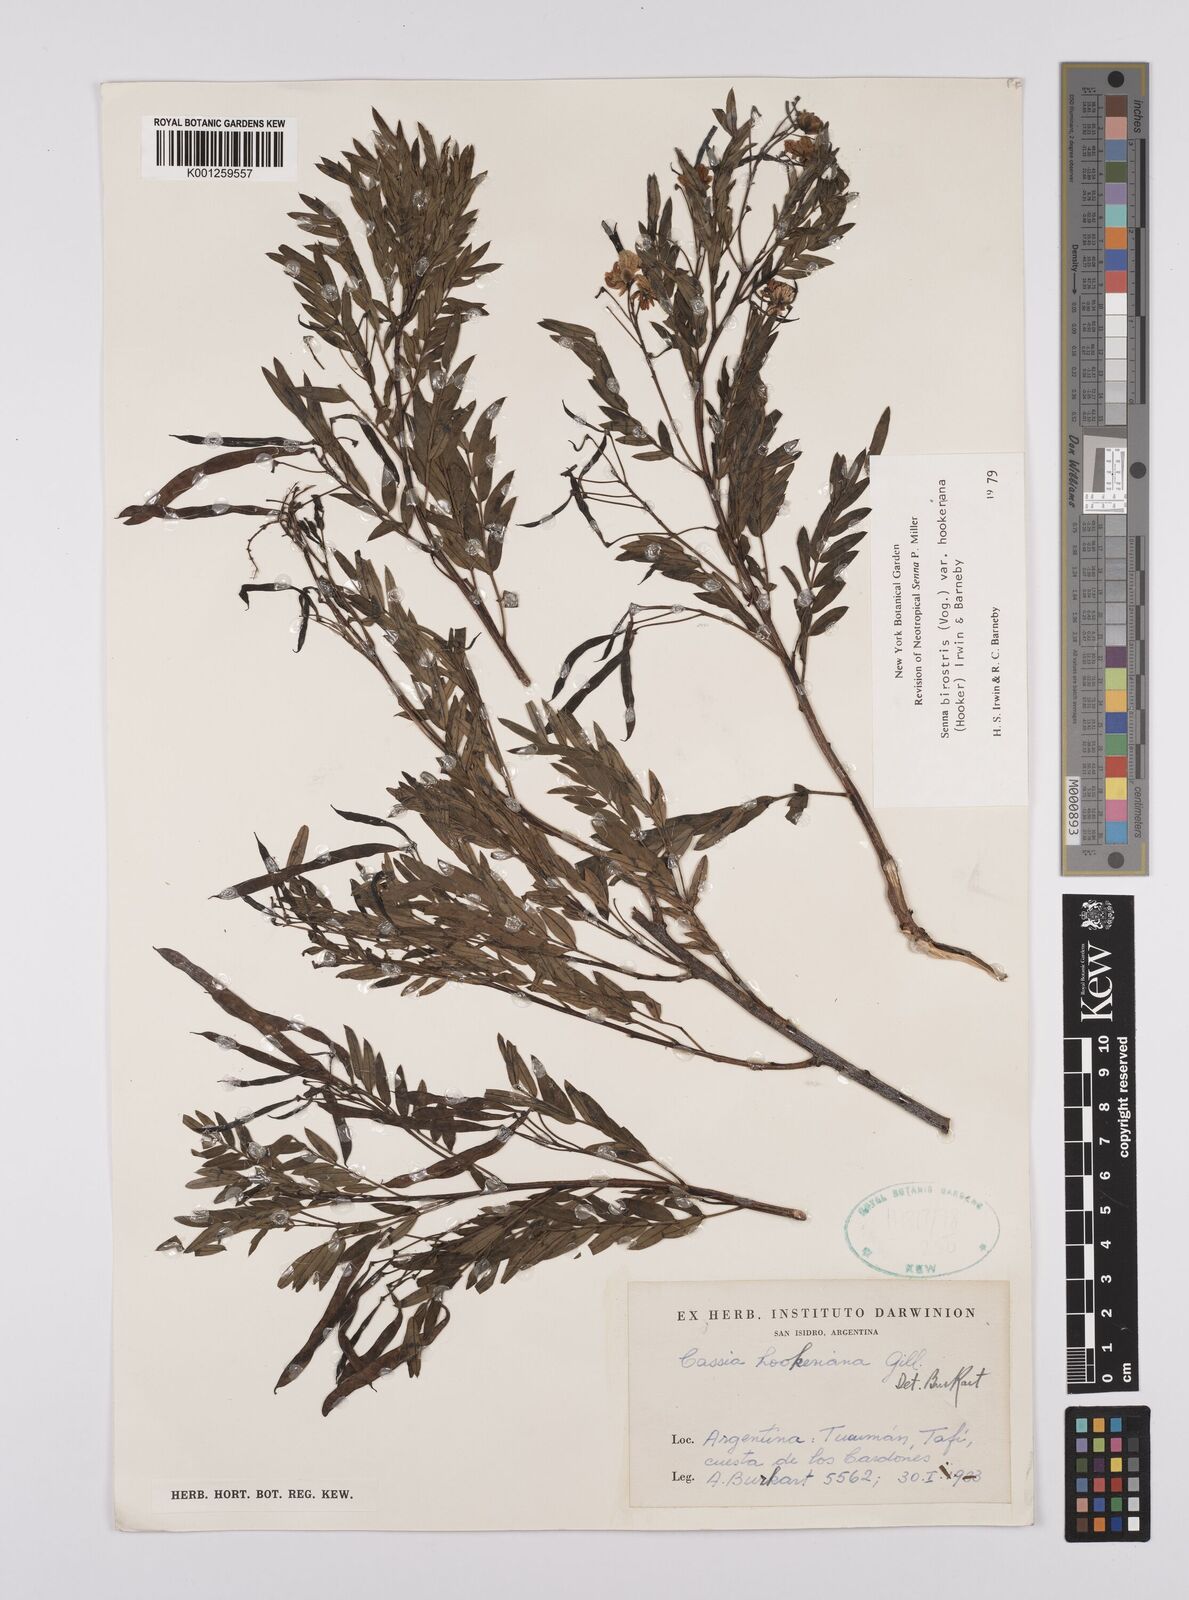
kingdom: Plantae
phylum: Tracheophyta
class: Magnoliopsida
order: Fabales
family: Fabaceae
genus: Senna
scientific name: Senna birostris
